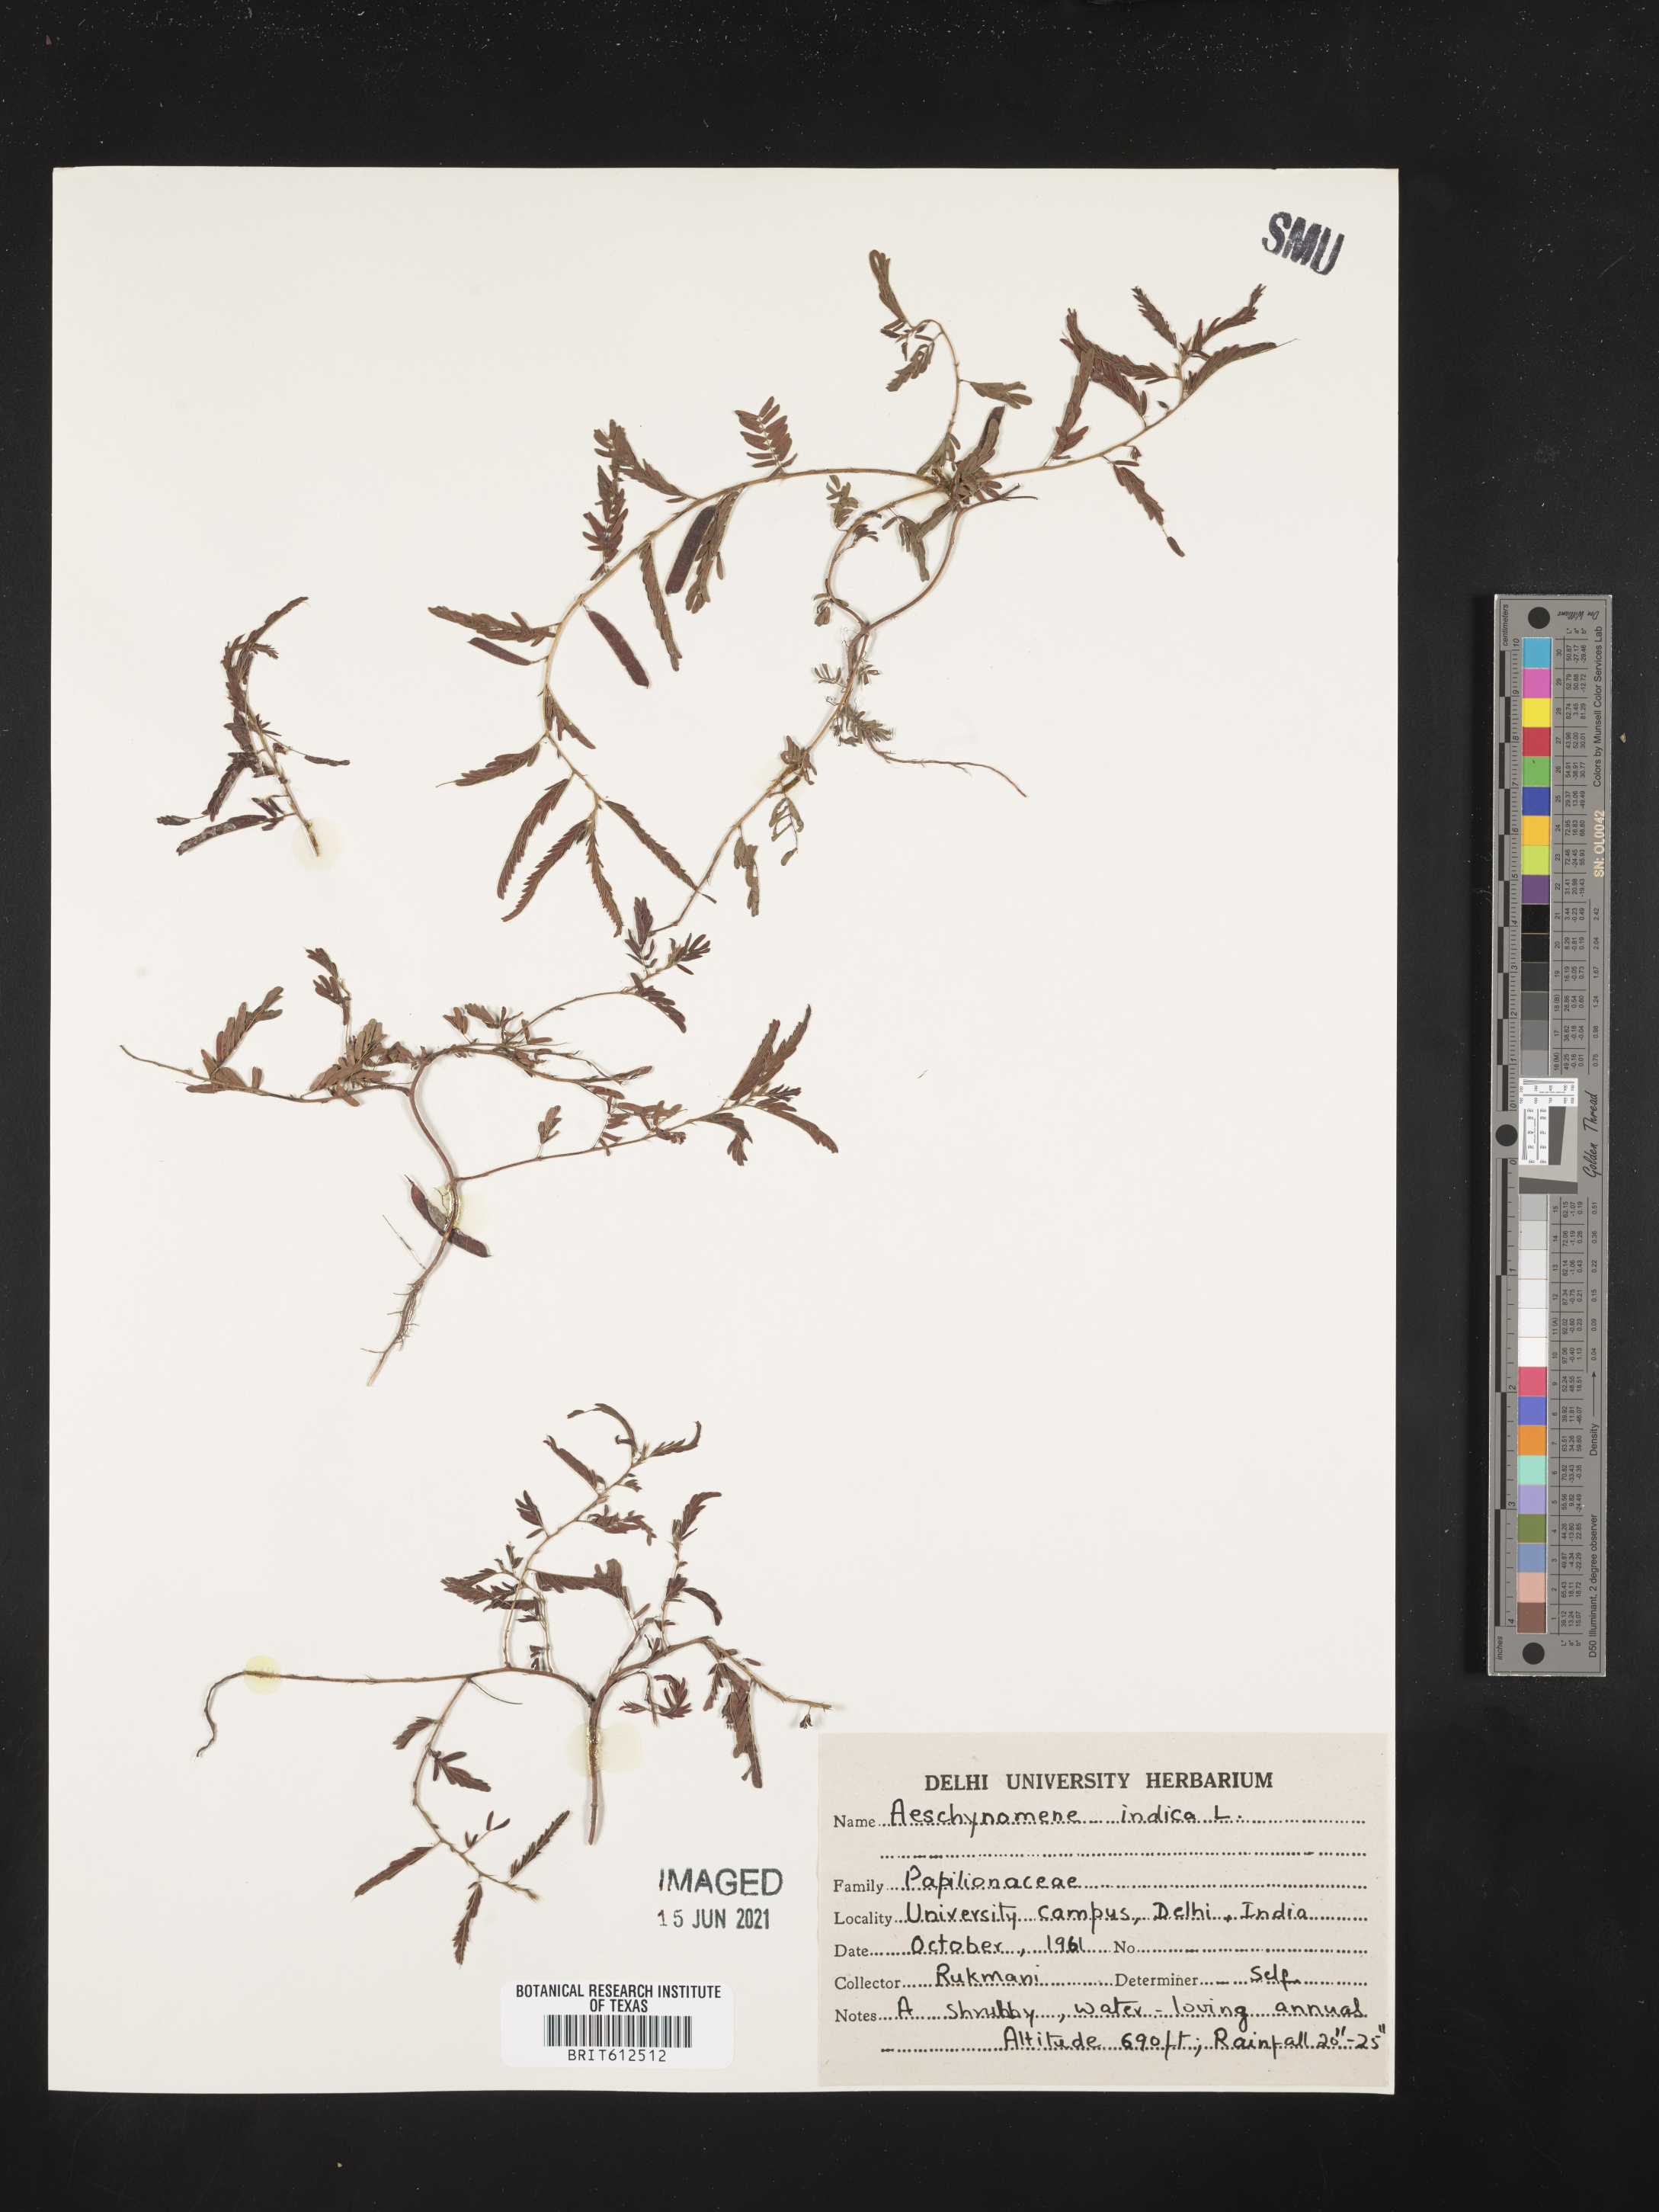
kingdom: Plantae
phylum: Tracheophyta
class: Magnoliopsida
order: Fabales
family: Fabaceae
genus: Aeschynomene
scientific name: Aeschynomene indica
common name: Indian jointvetch
